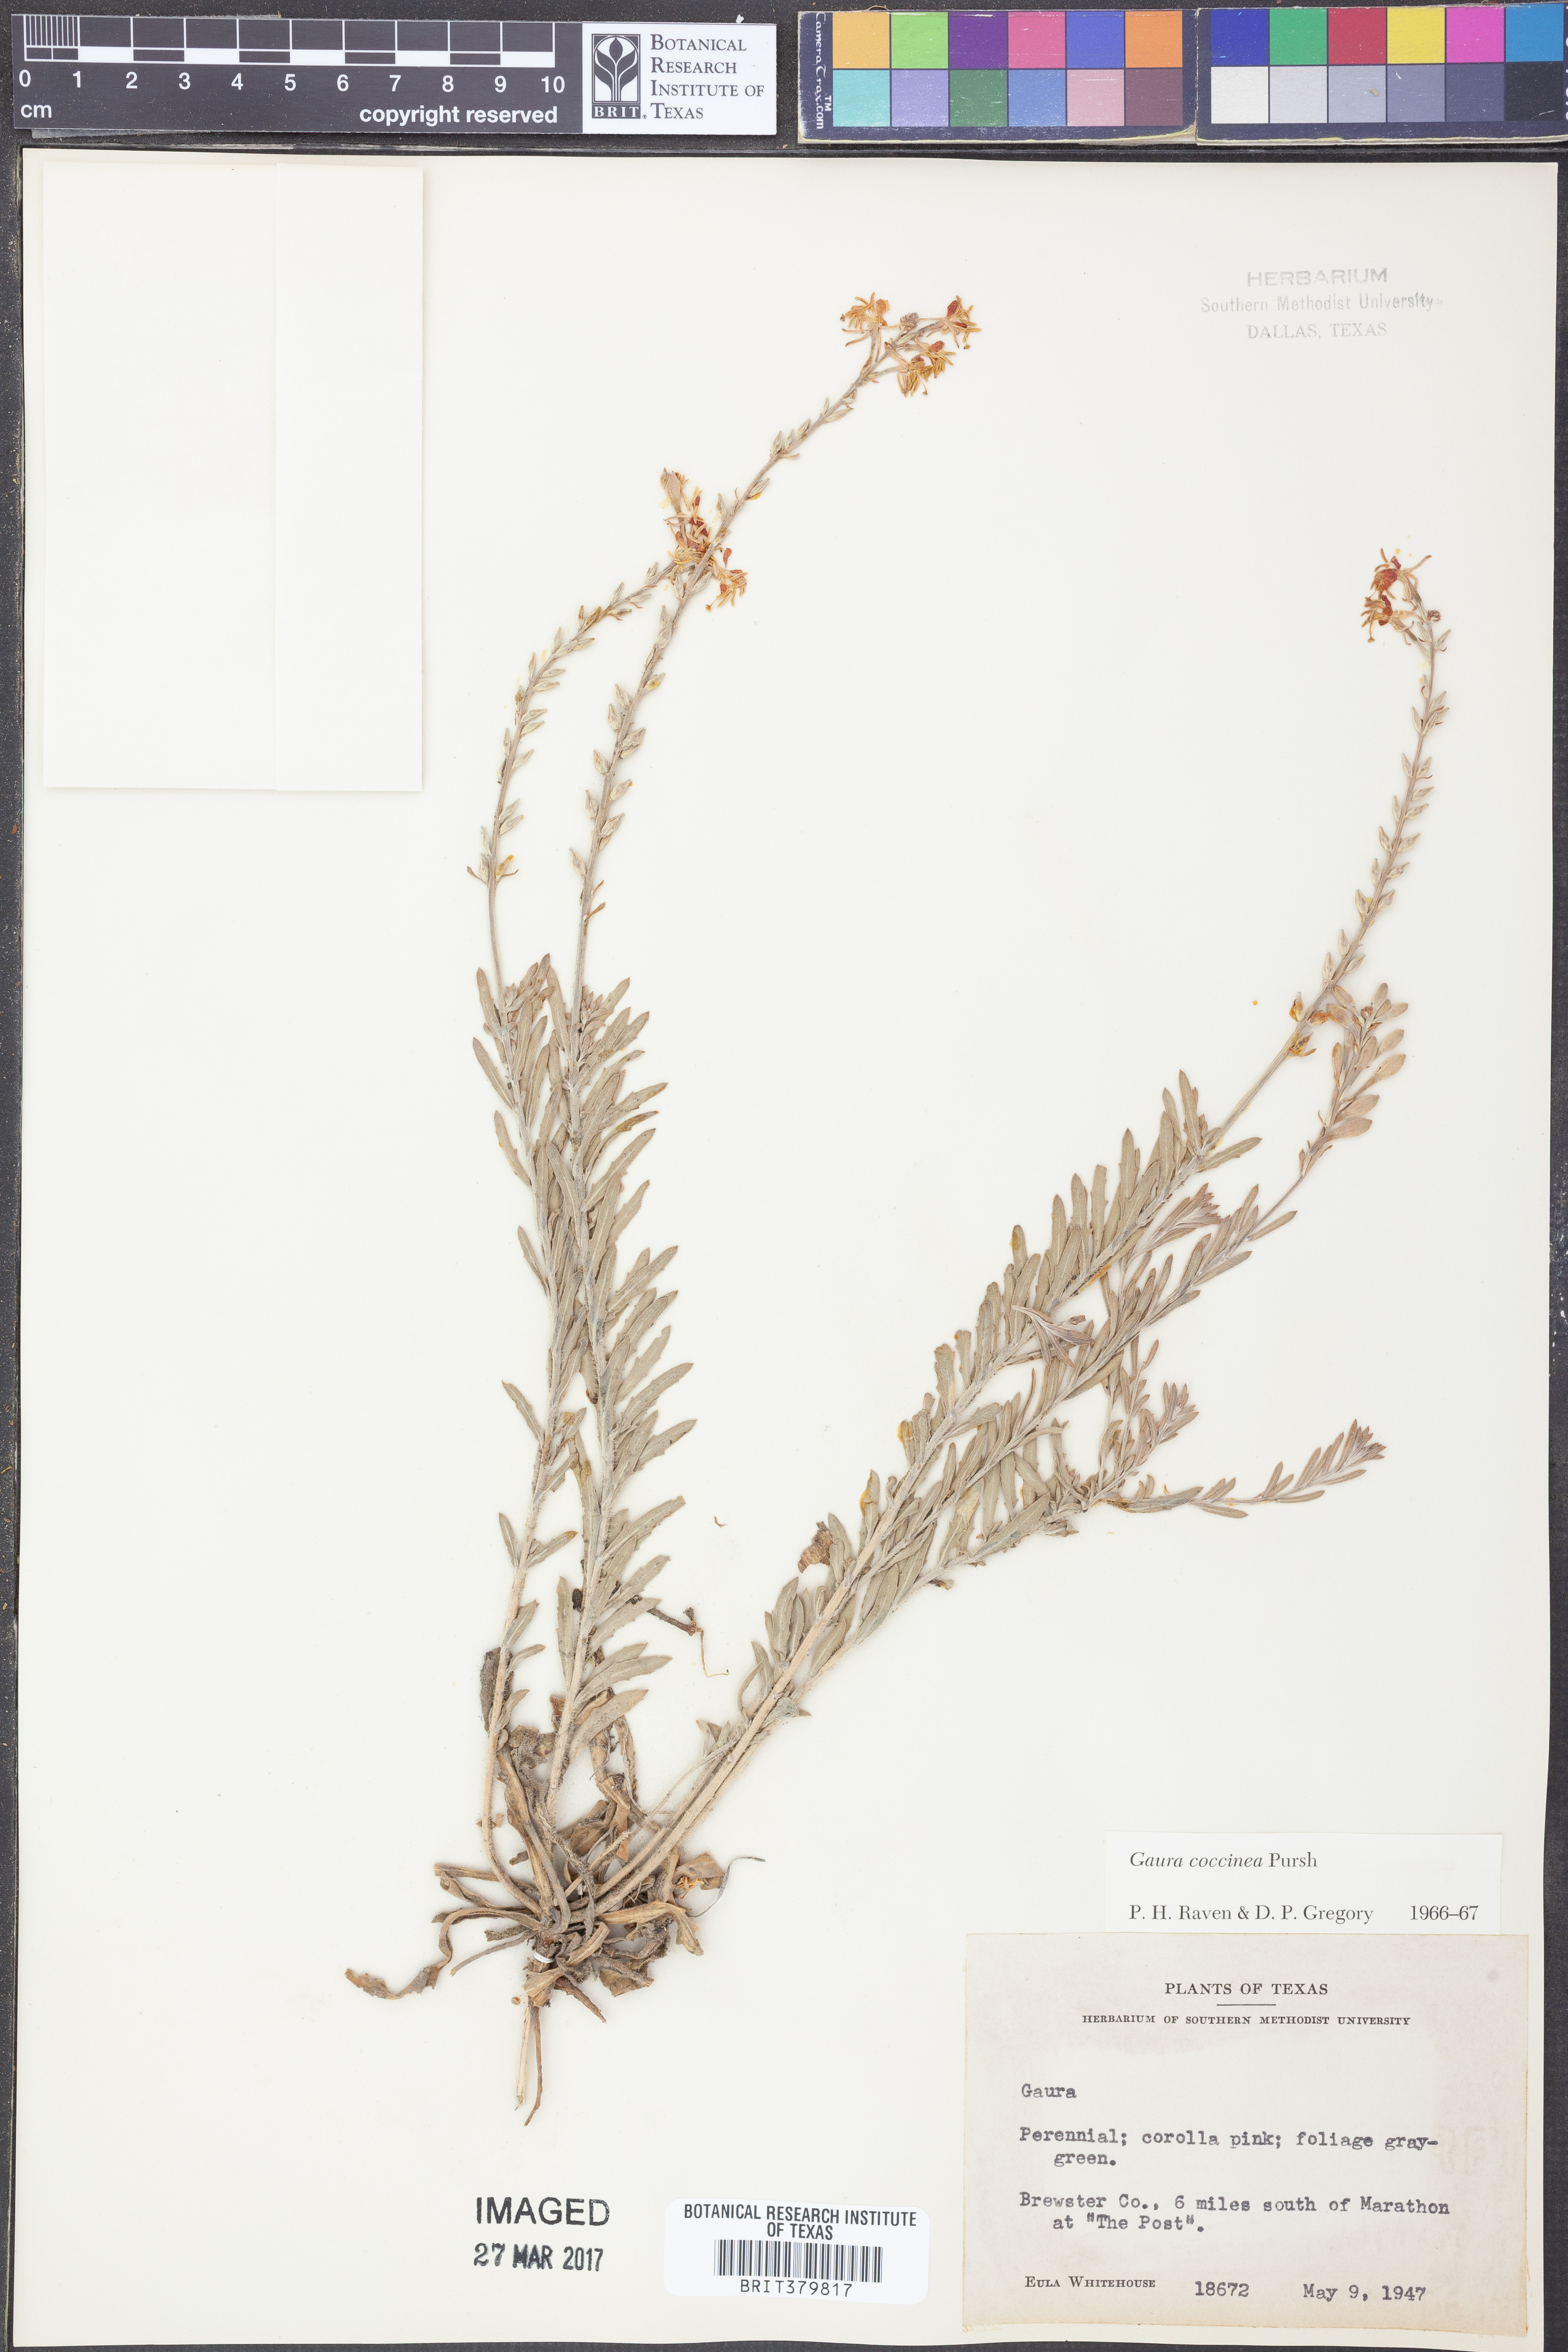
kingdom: Plantae
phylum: Tracheophyta
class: Magnoliopsida
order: Myrtales
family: Onagraceae
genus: Oenothera
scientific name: Oenothera suffrutescens
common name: Scarlet beeblossom
